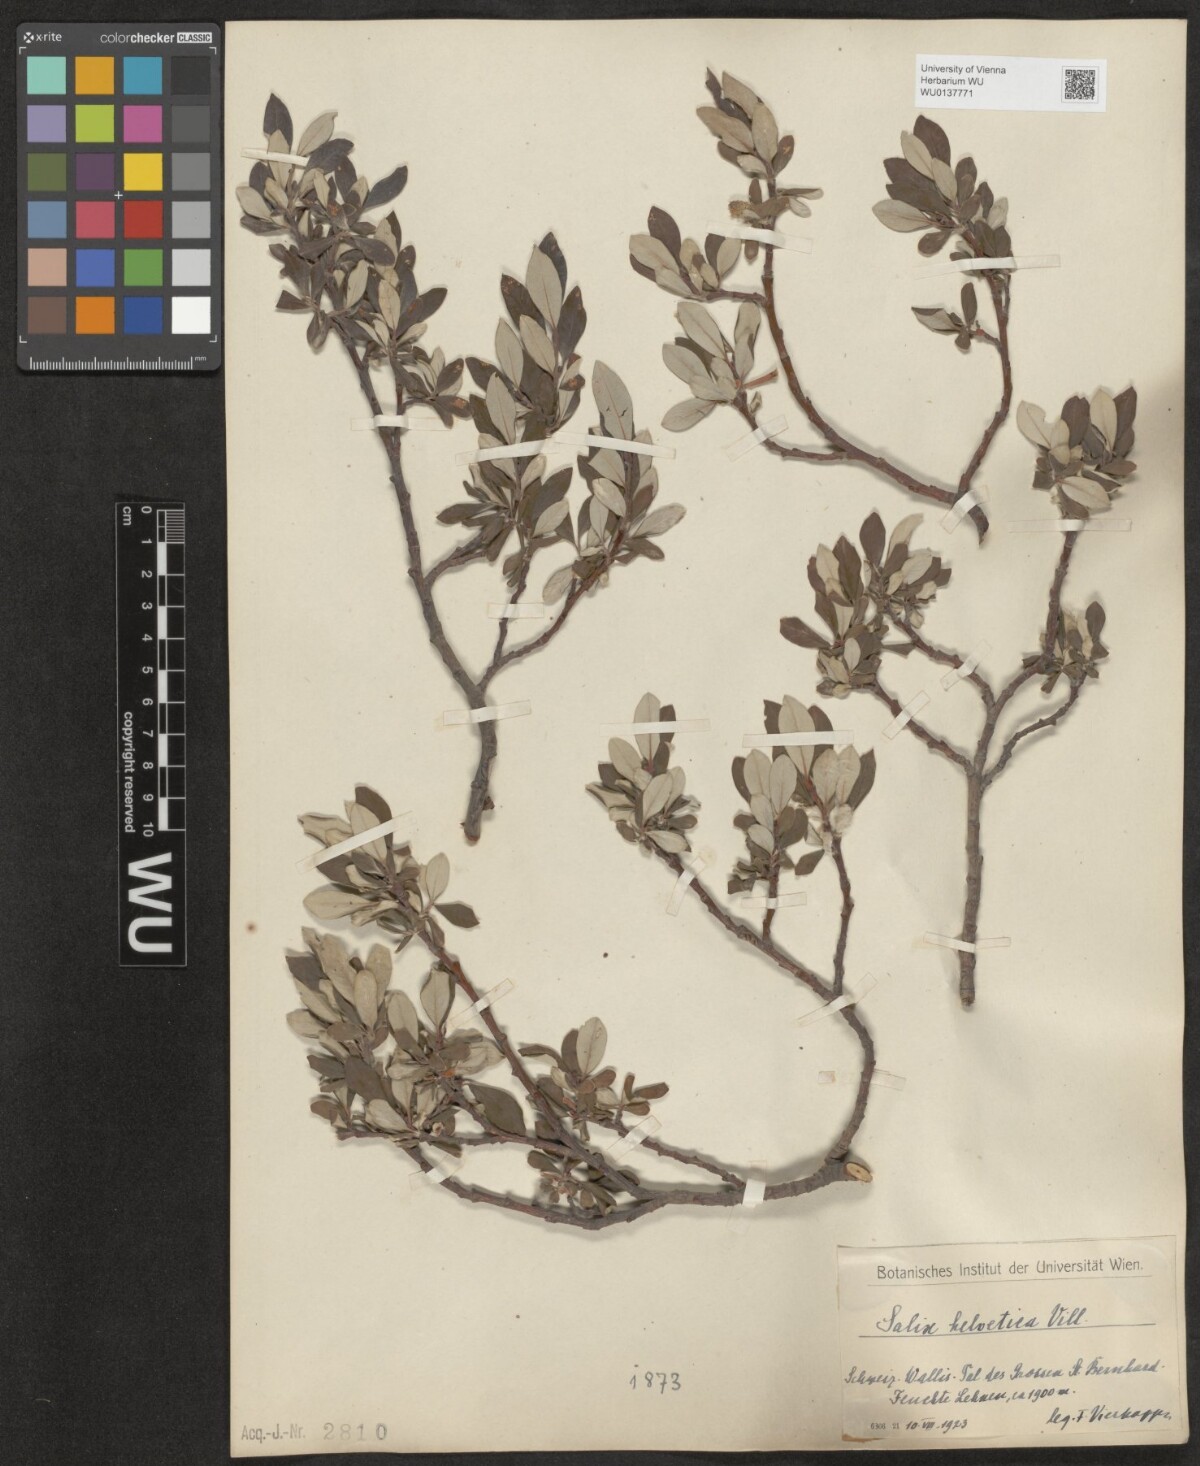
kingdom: Plantae
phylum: Tracheophyta
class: Magnoliopsida
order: Malpighiales
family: Salicaceae
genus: Salix
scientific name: Salix helvetica
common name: Swiss willow
